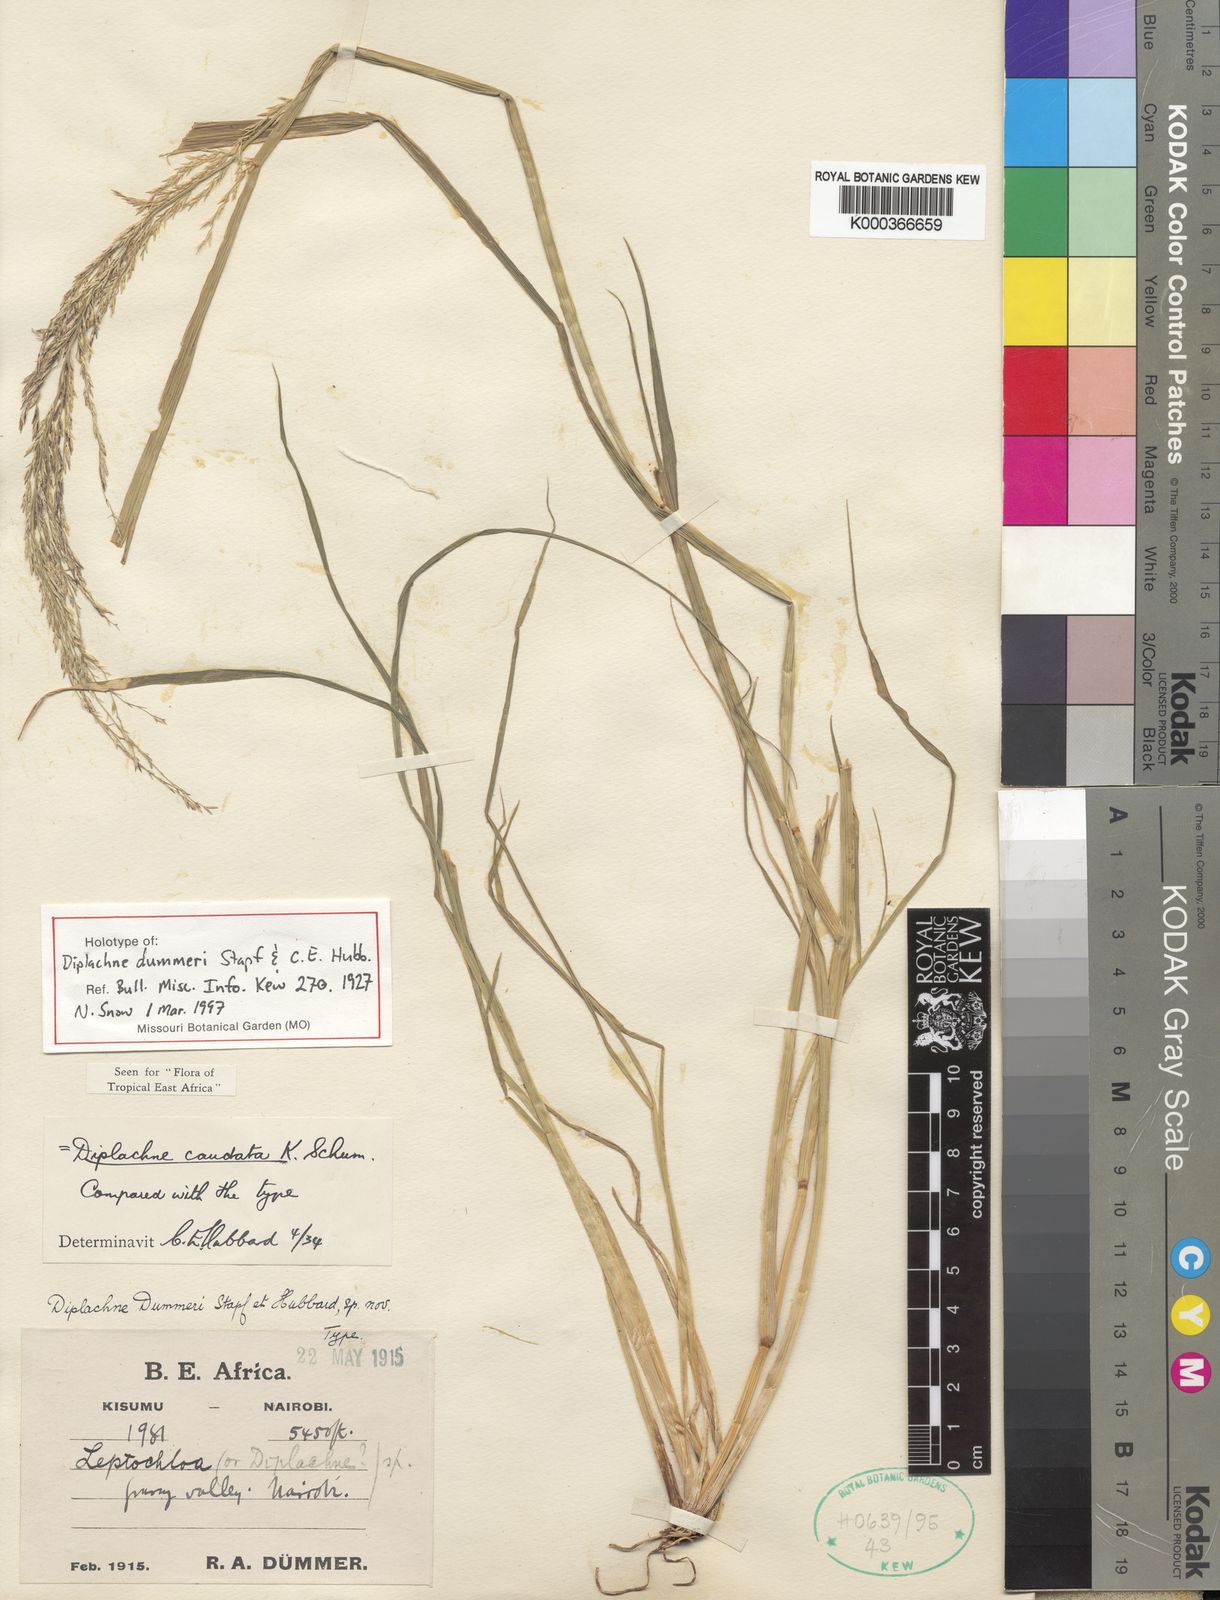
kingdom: Plantae
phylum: Tracheophyta
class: Liliopsida
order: Poales
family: Poaceae
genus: Leptochloa
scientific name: Leptochloa caudata
